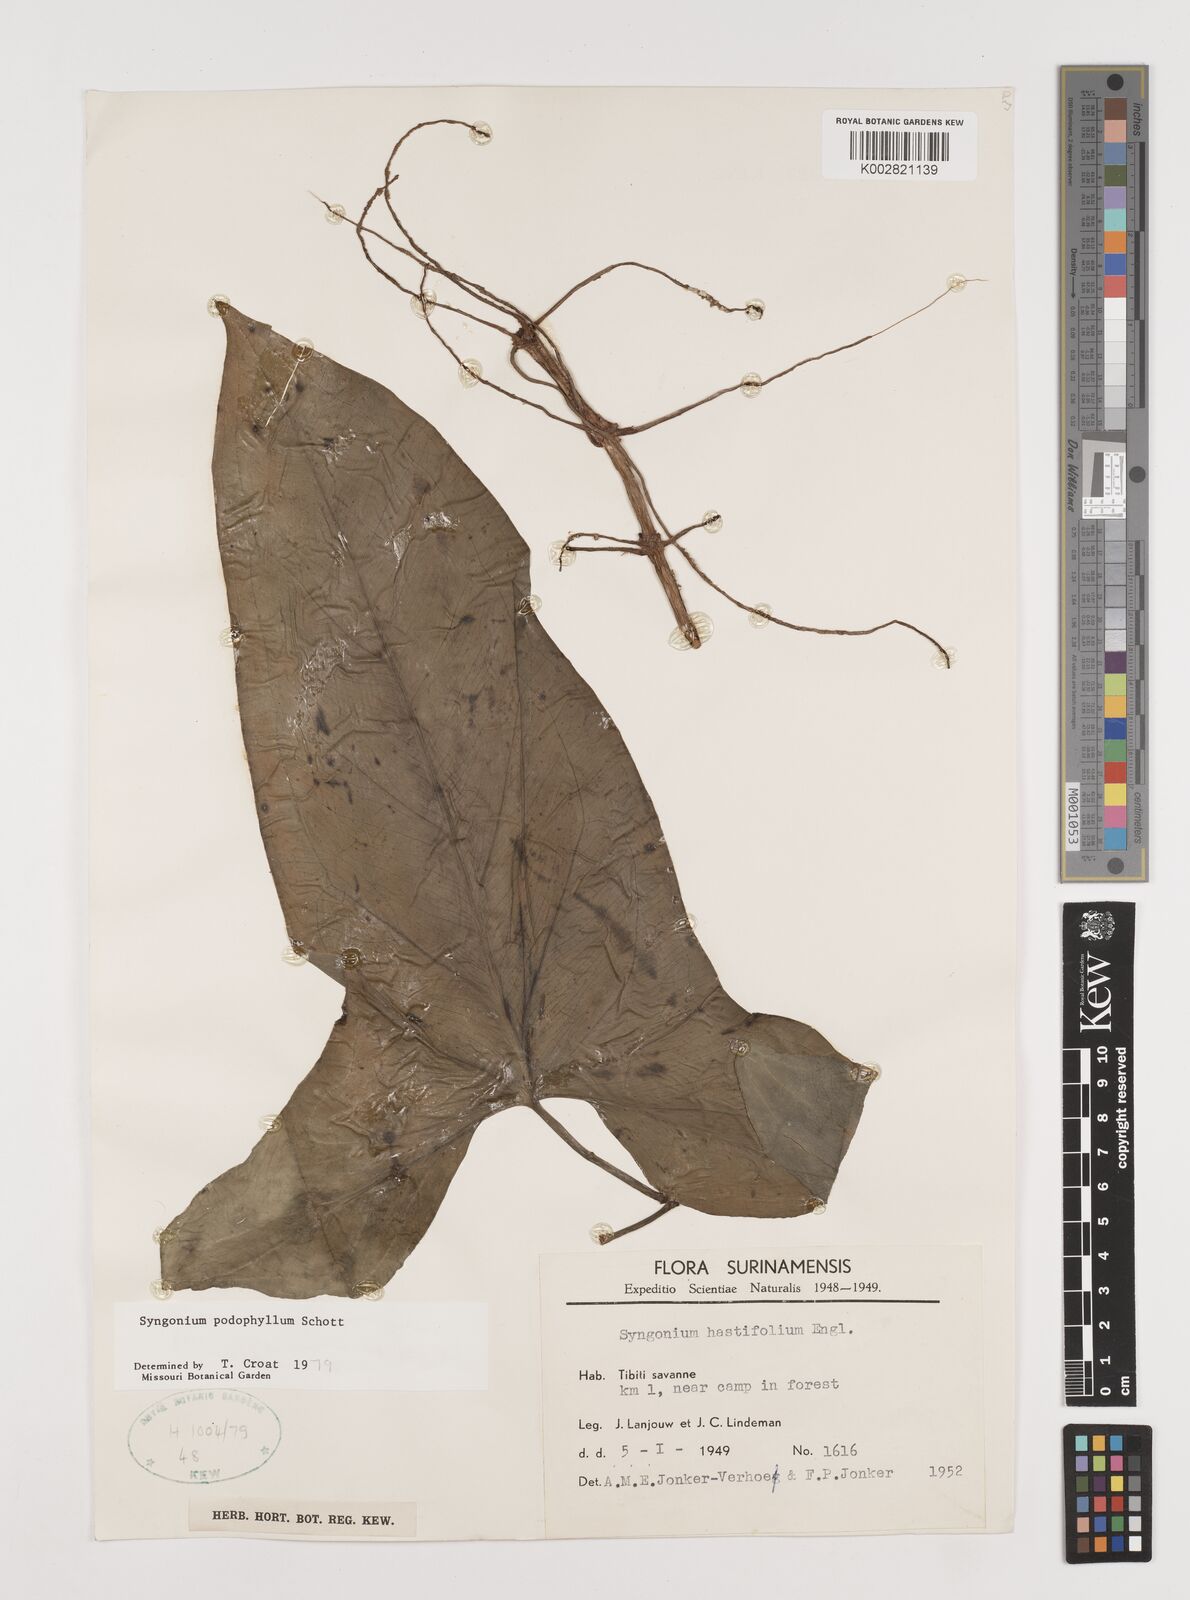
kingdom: Plantae
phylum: Tracheophyta
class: Liliopsida
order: Alismatales
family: Araceae
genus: Syngonium
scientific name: Syngonium podophyllum
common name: American evergreen
